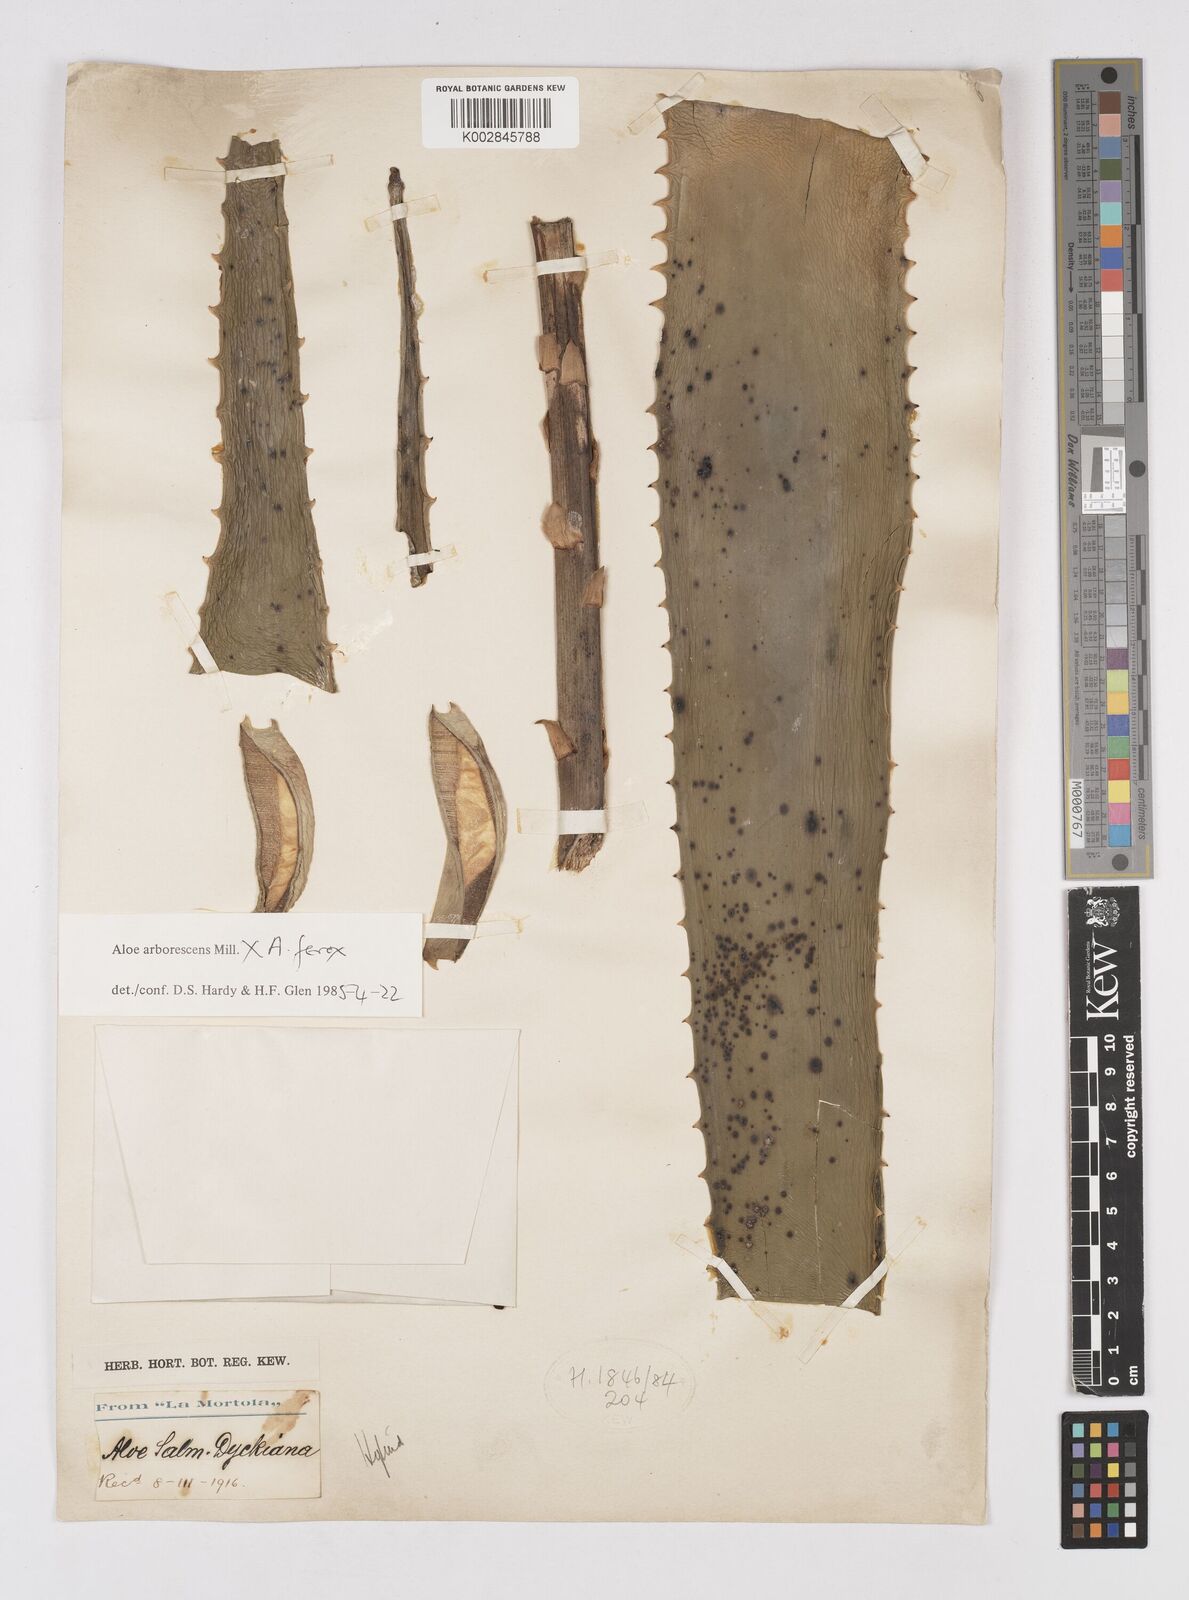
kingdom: Plantae
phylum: Tracheophyta
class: Liliopsida
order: Asparagales
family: Asphodelaceae
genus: Aloe
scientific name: Aloe arborescens
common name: Candelabra aloe
